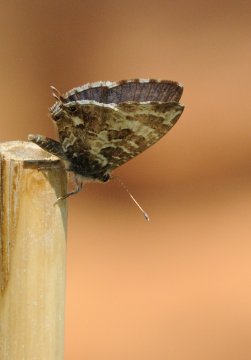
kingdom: Animalia
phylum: Arthropoda
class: Insecta
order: Lepidoptera
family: Lycaenidae
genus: Cacyreus
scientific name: Cacyreus lingeus
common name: Common Bush Blue
